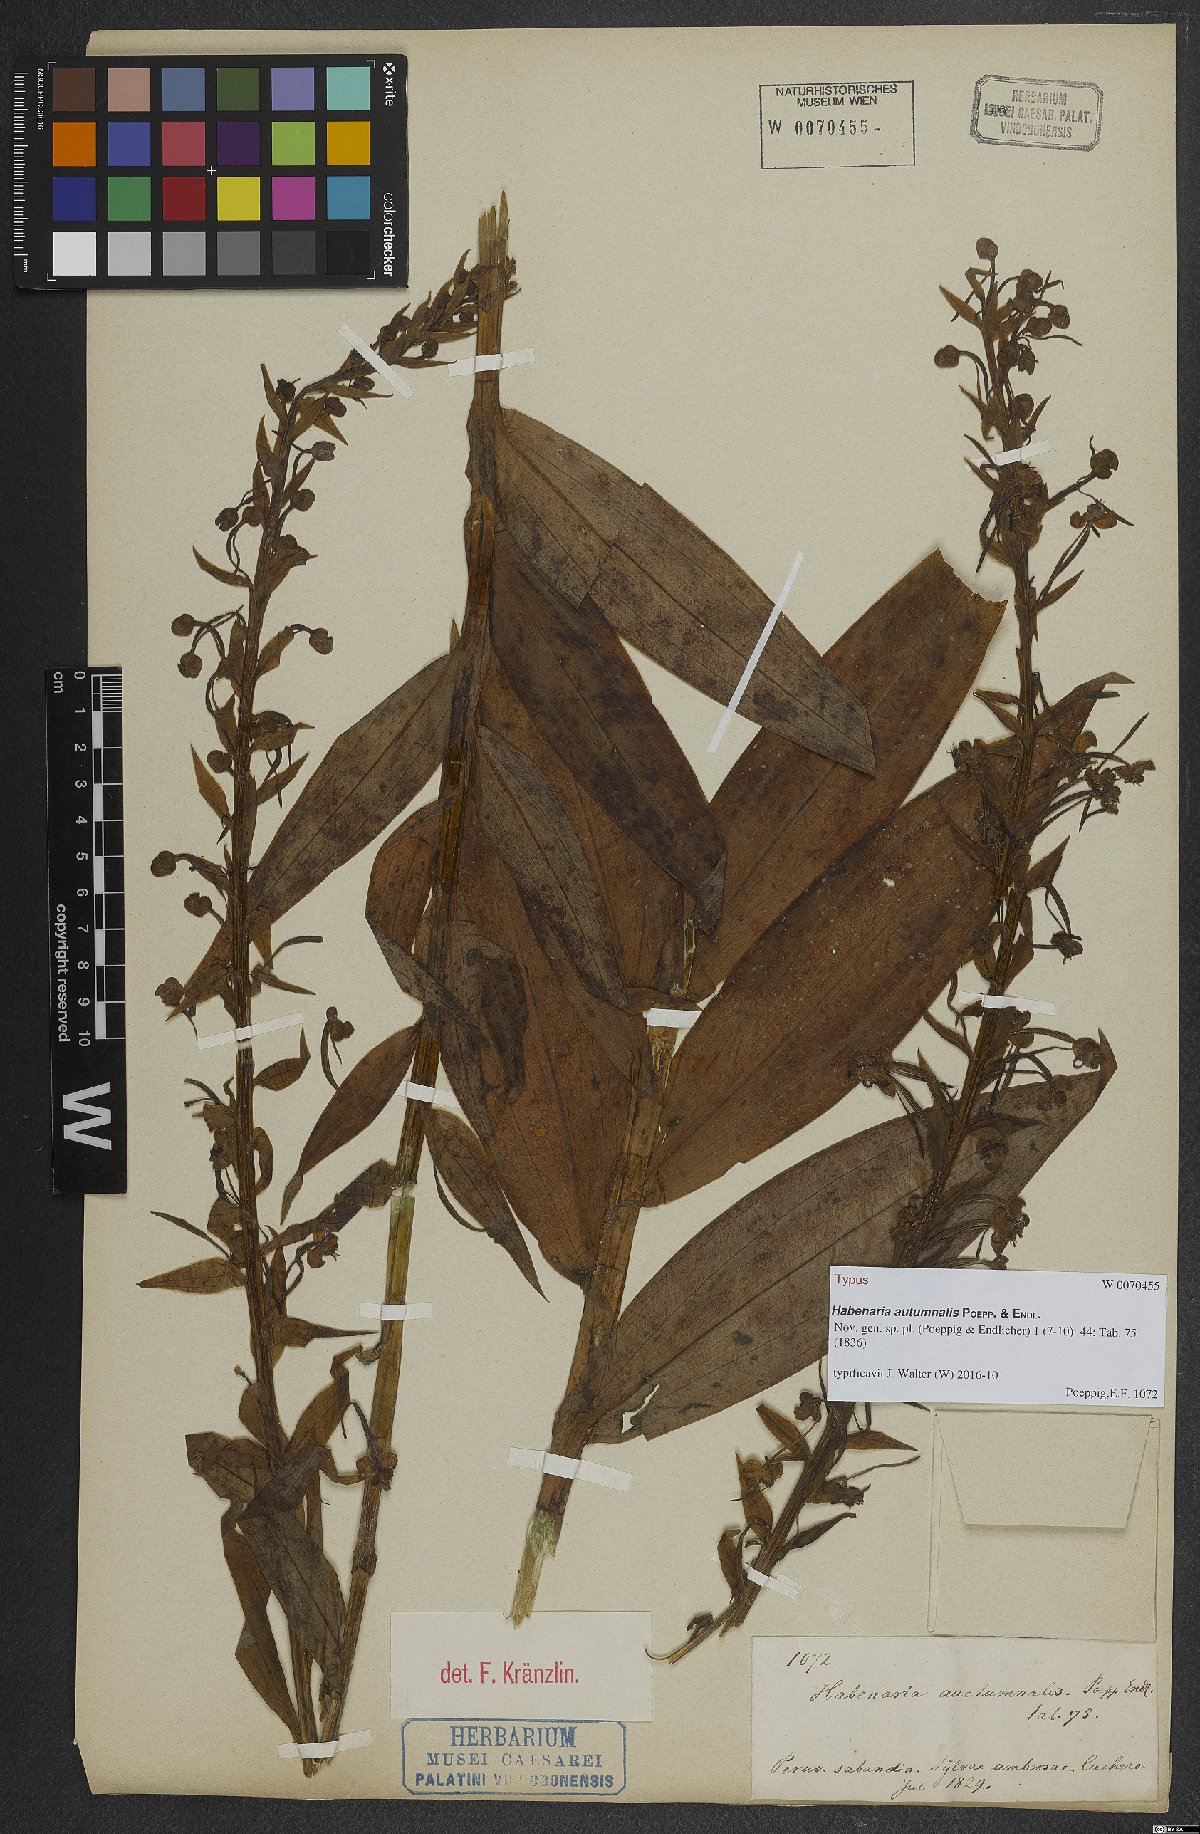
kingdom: Plantae
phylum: Tracheophyta
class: Liliopsida
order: Asparagales
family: Orchidaceae
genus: Habenaria
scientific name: Habenaria floribunda
